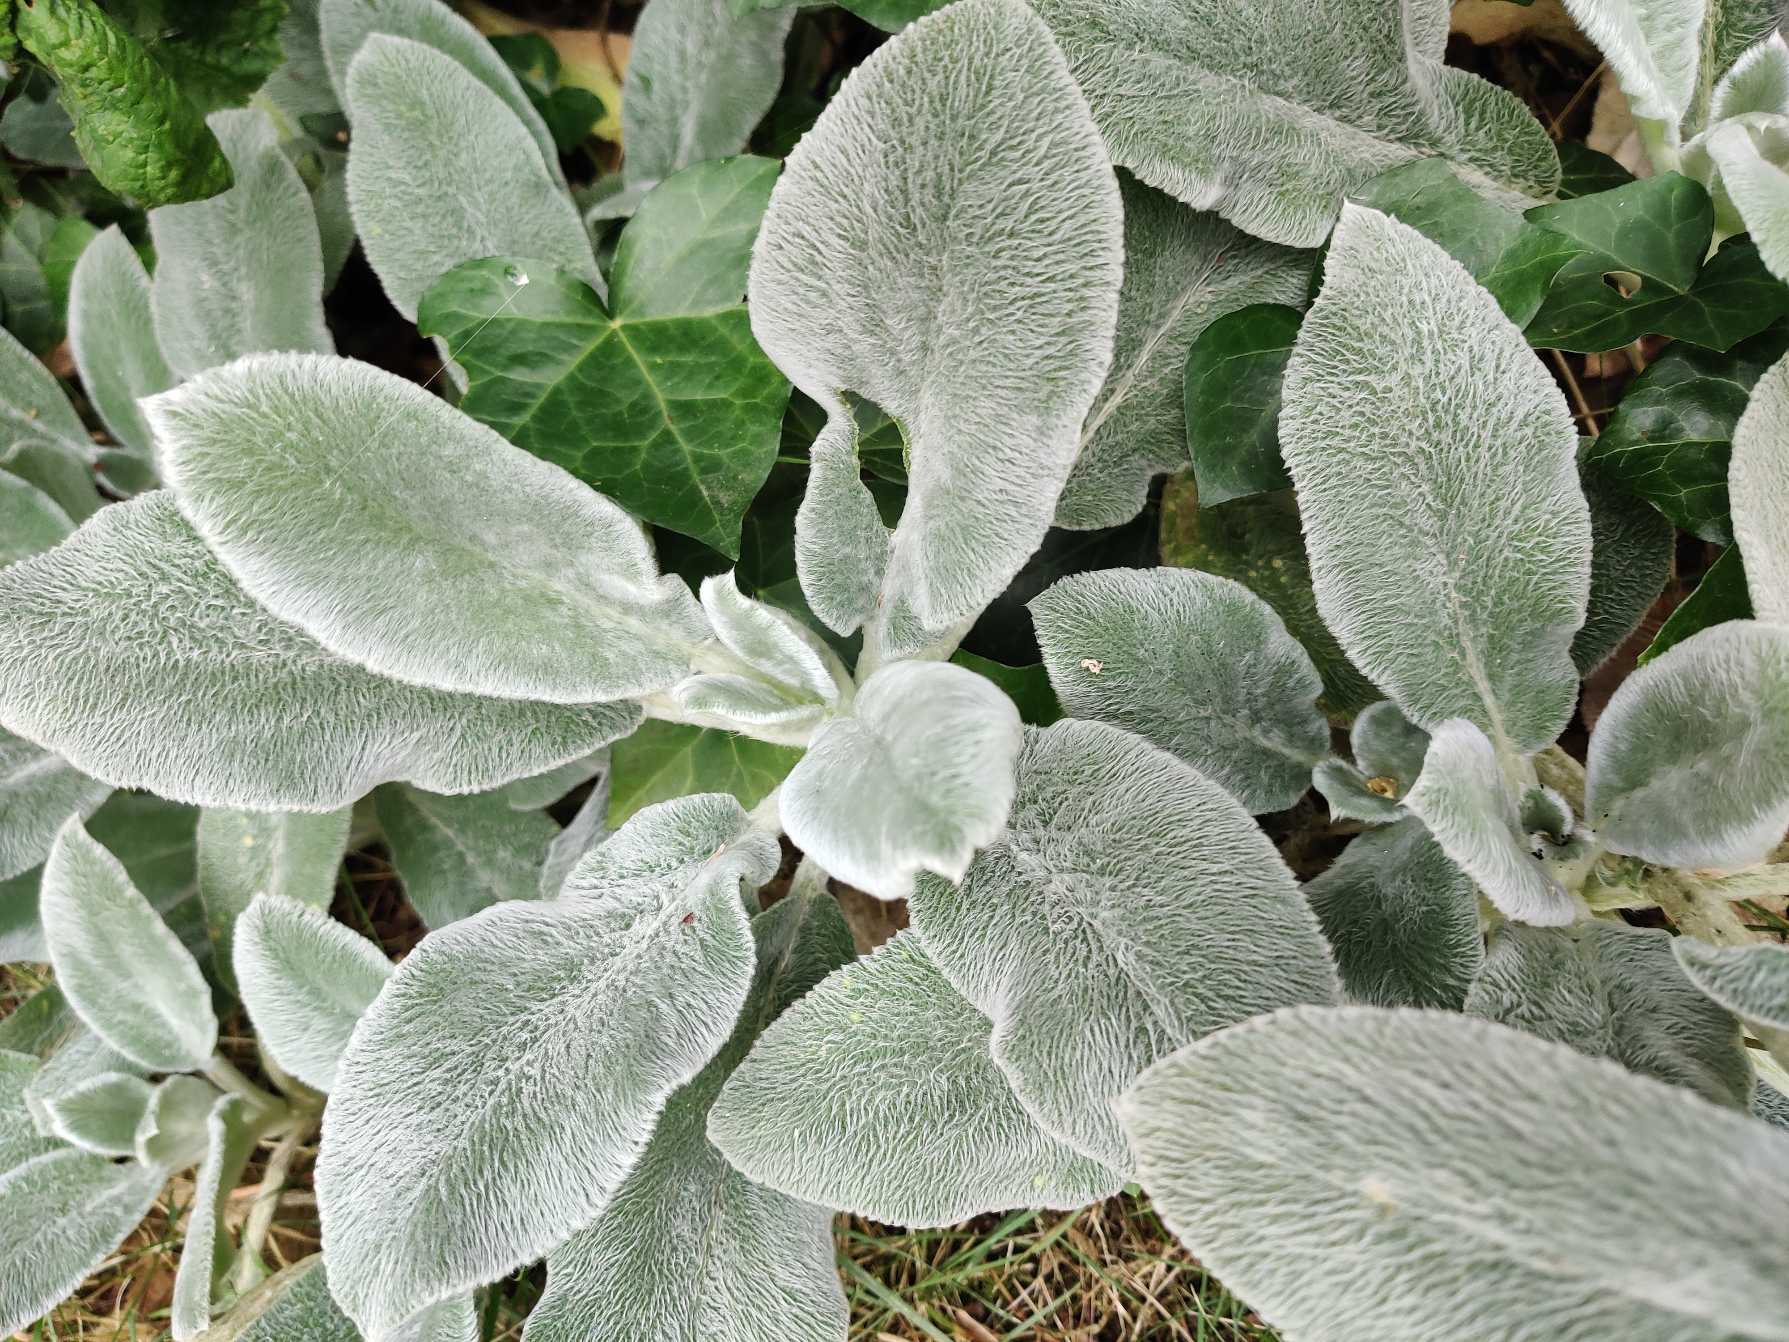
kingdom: Plantae
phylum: Tracheophyta
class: Magnoliopsida
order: Lamiales
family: Lamiaceae
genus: Stachys
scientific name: Stachys byzantina
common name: Lammeøre
